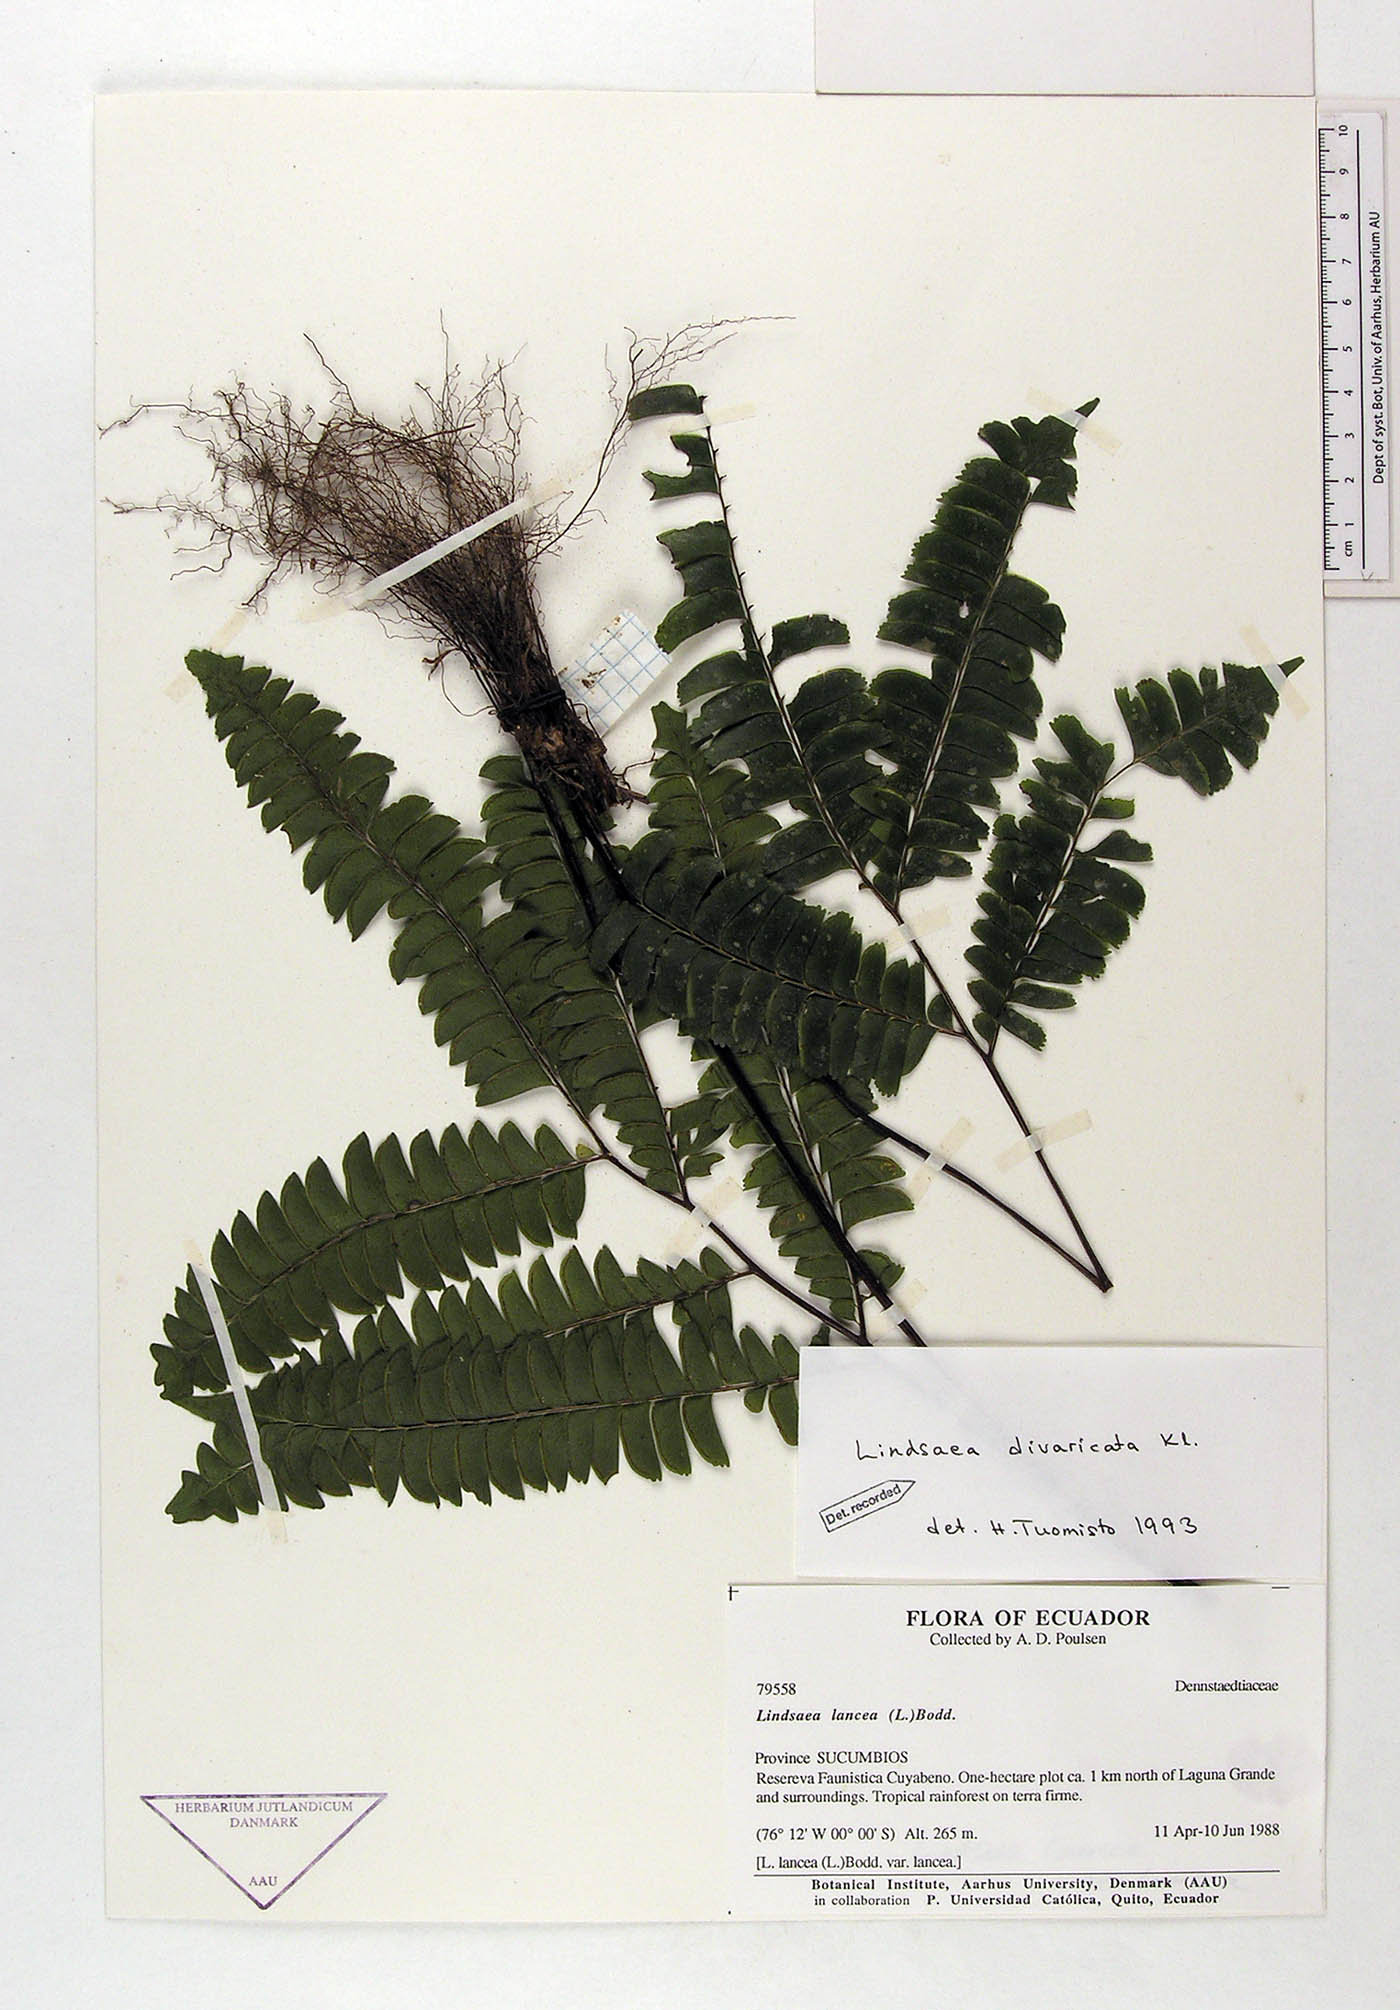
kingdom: Plantae
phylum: Tracheophyta
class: Polypodiopsida
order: Polypodiales
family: Lindsaeaceae
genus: Lindsaea
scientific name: Lindsaea divaricata
